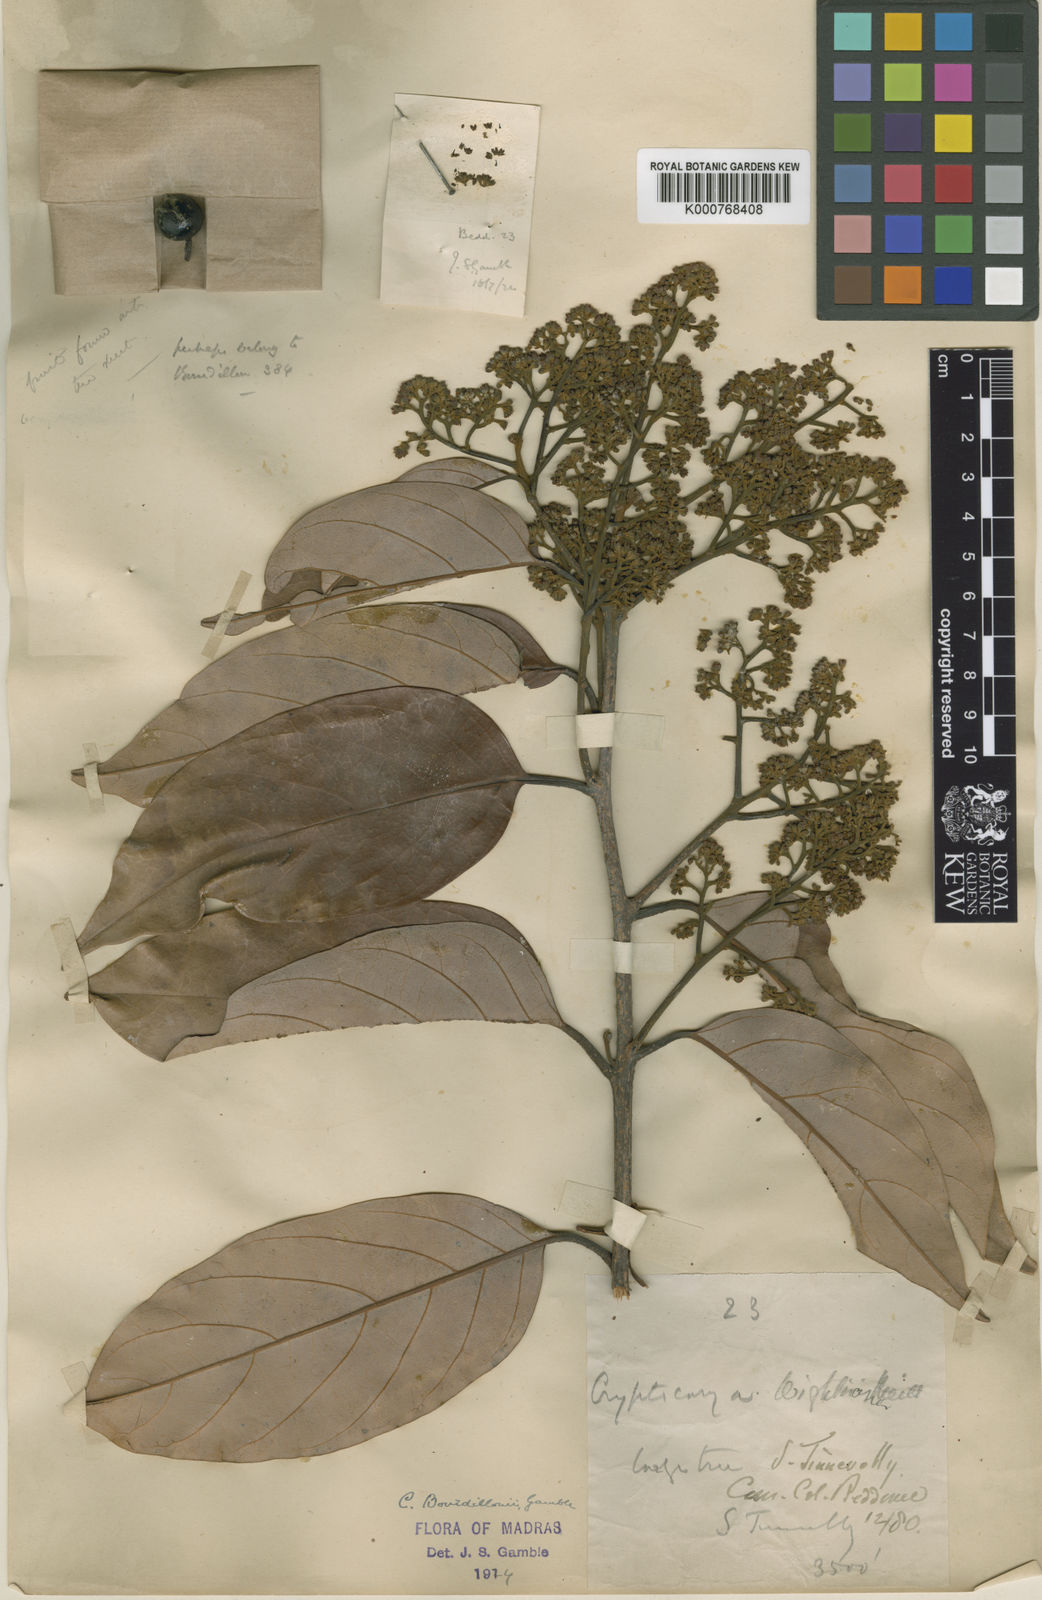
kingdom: Plantae
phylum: Tracheophyta
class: Magnoliopsida
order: Laurales
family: Lauraceae
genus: Cryptocarya
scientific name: Cryptocarya wightiana
